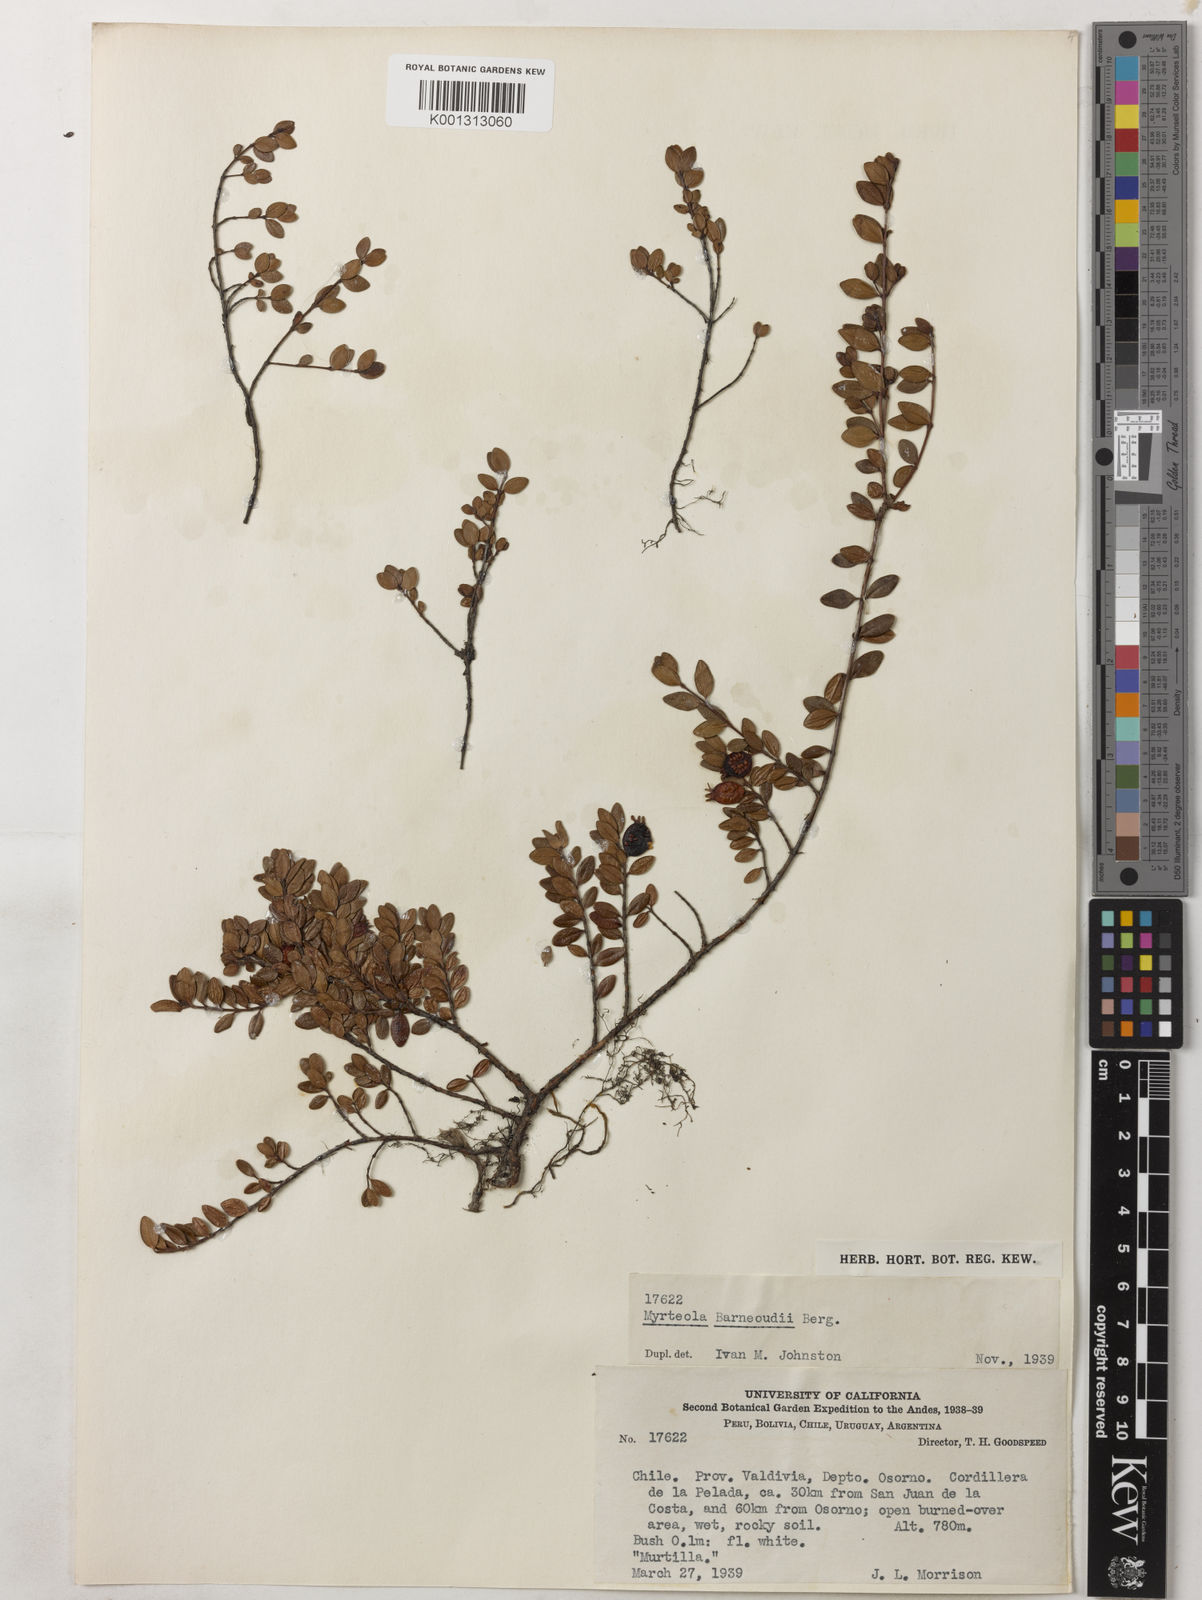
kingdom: Plantae
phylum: Tracheophyta
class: Magnoliopsida
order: Myrtales
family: Myrtaceae
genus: Myrteola
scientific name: Myrteola nummularia
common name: Cranberry-myrtle
